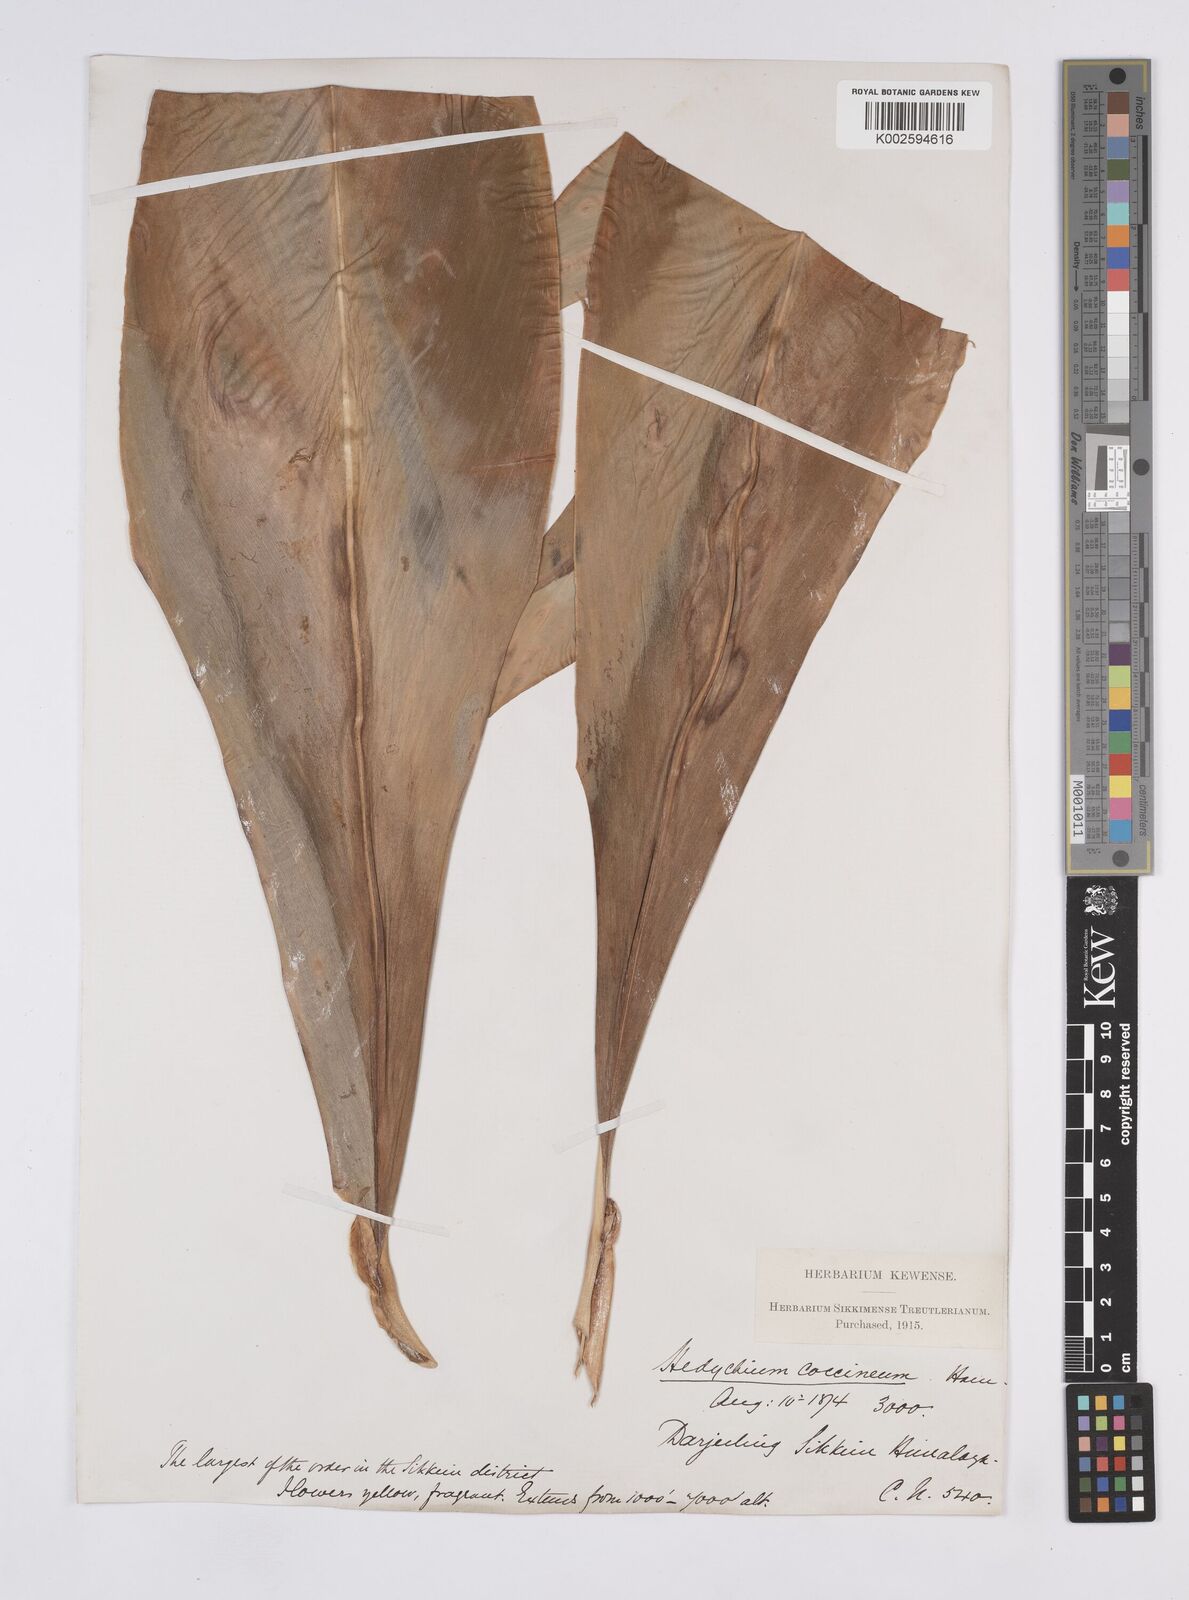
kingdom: Plantae
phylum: Tracheophyta
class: Liliopsida
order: Zingiberales
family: Zingiberaceae
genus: Hedychium
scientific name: Hedychium gardnerianum
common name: Himalayan ginger
